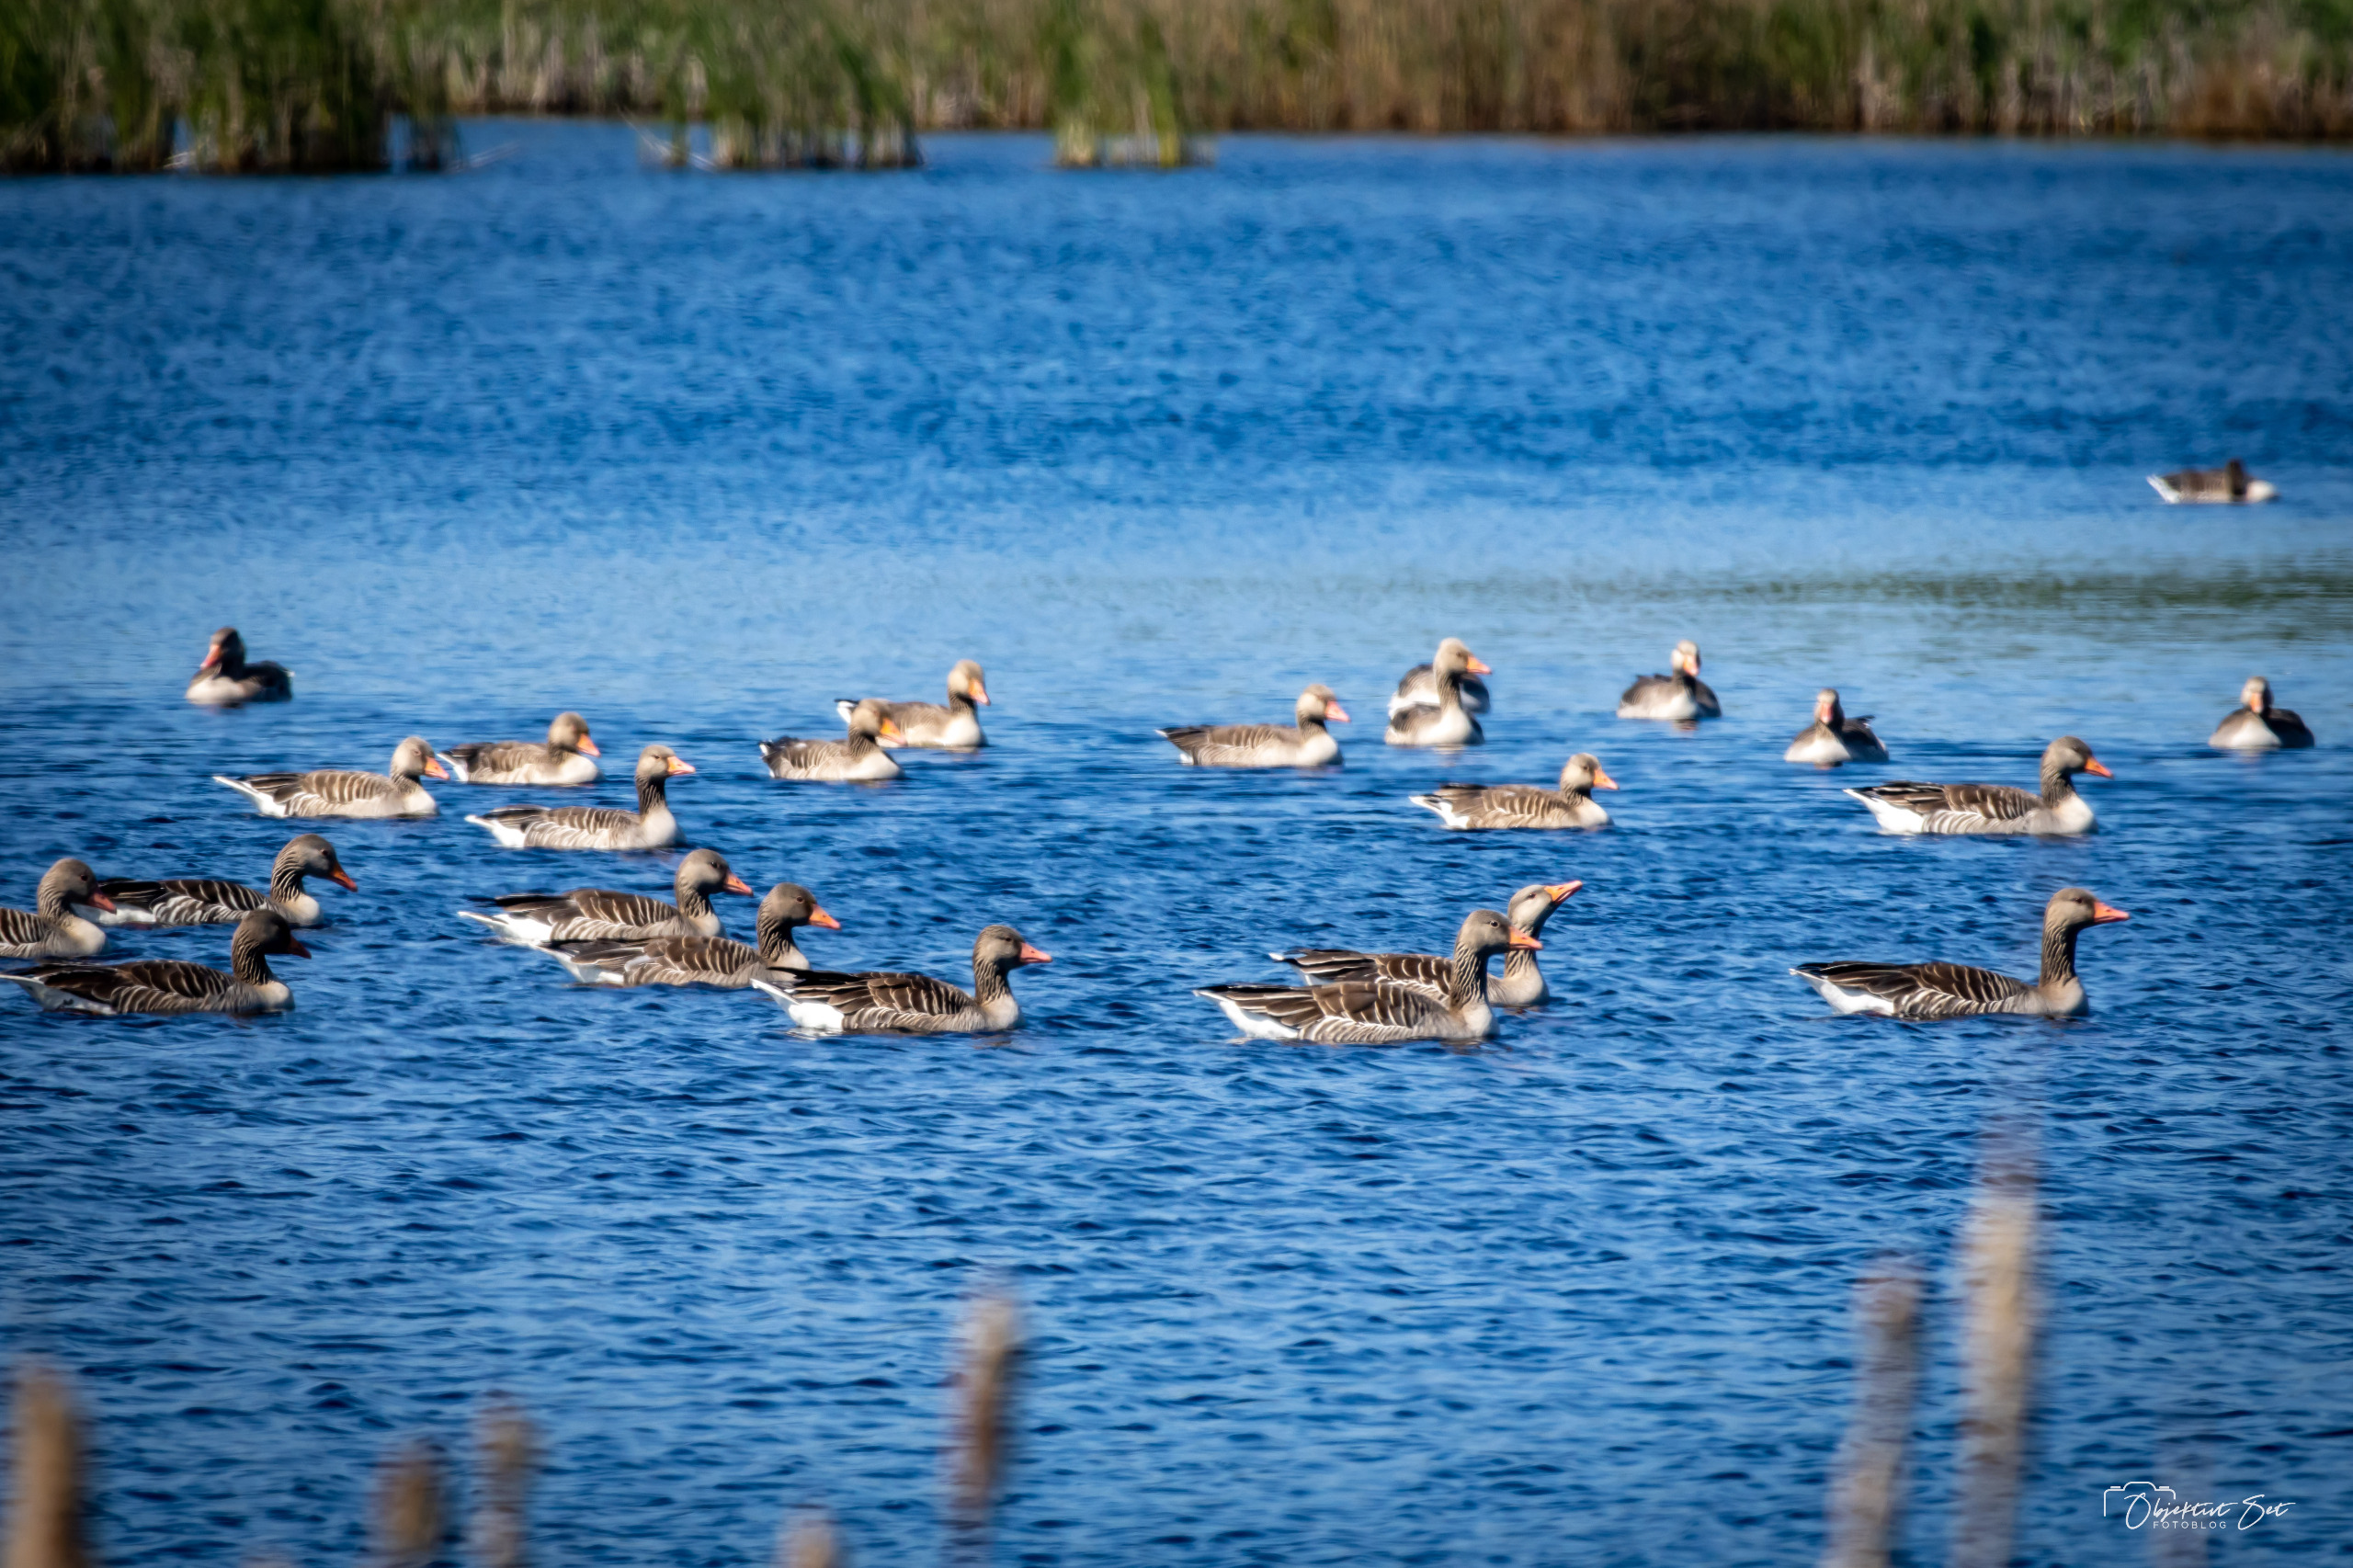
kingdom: Animalia
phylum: Chordata
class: Aves
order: Anseriformes
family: Anatidae
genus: Anser
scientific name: Anser anser
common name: Grågås
